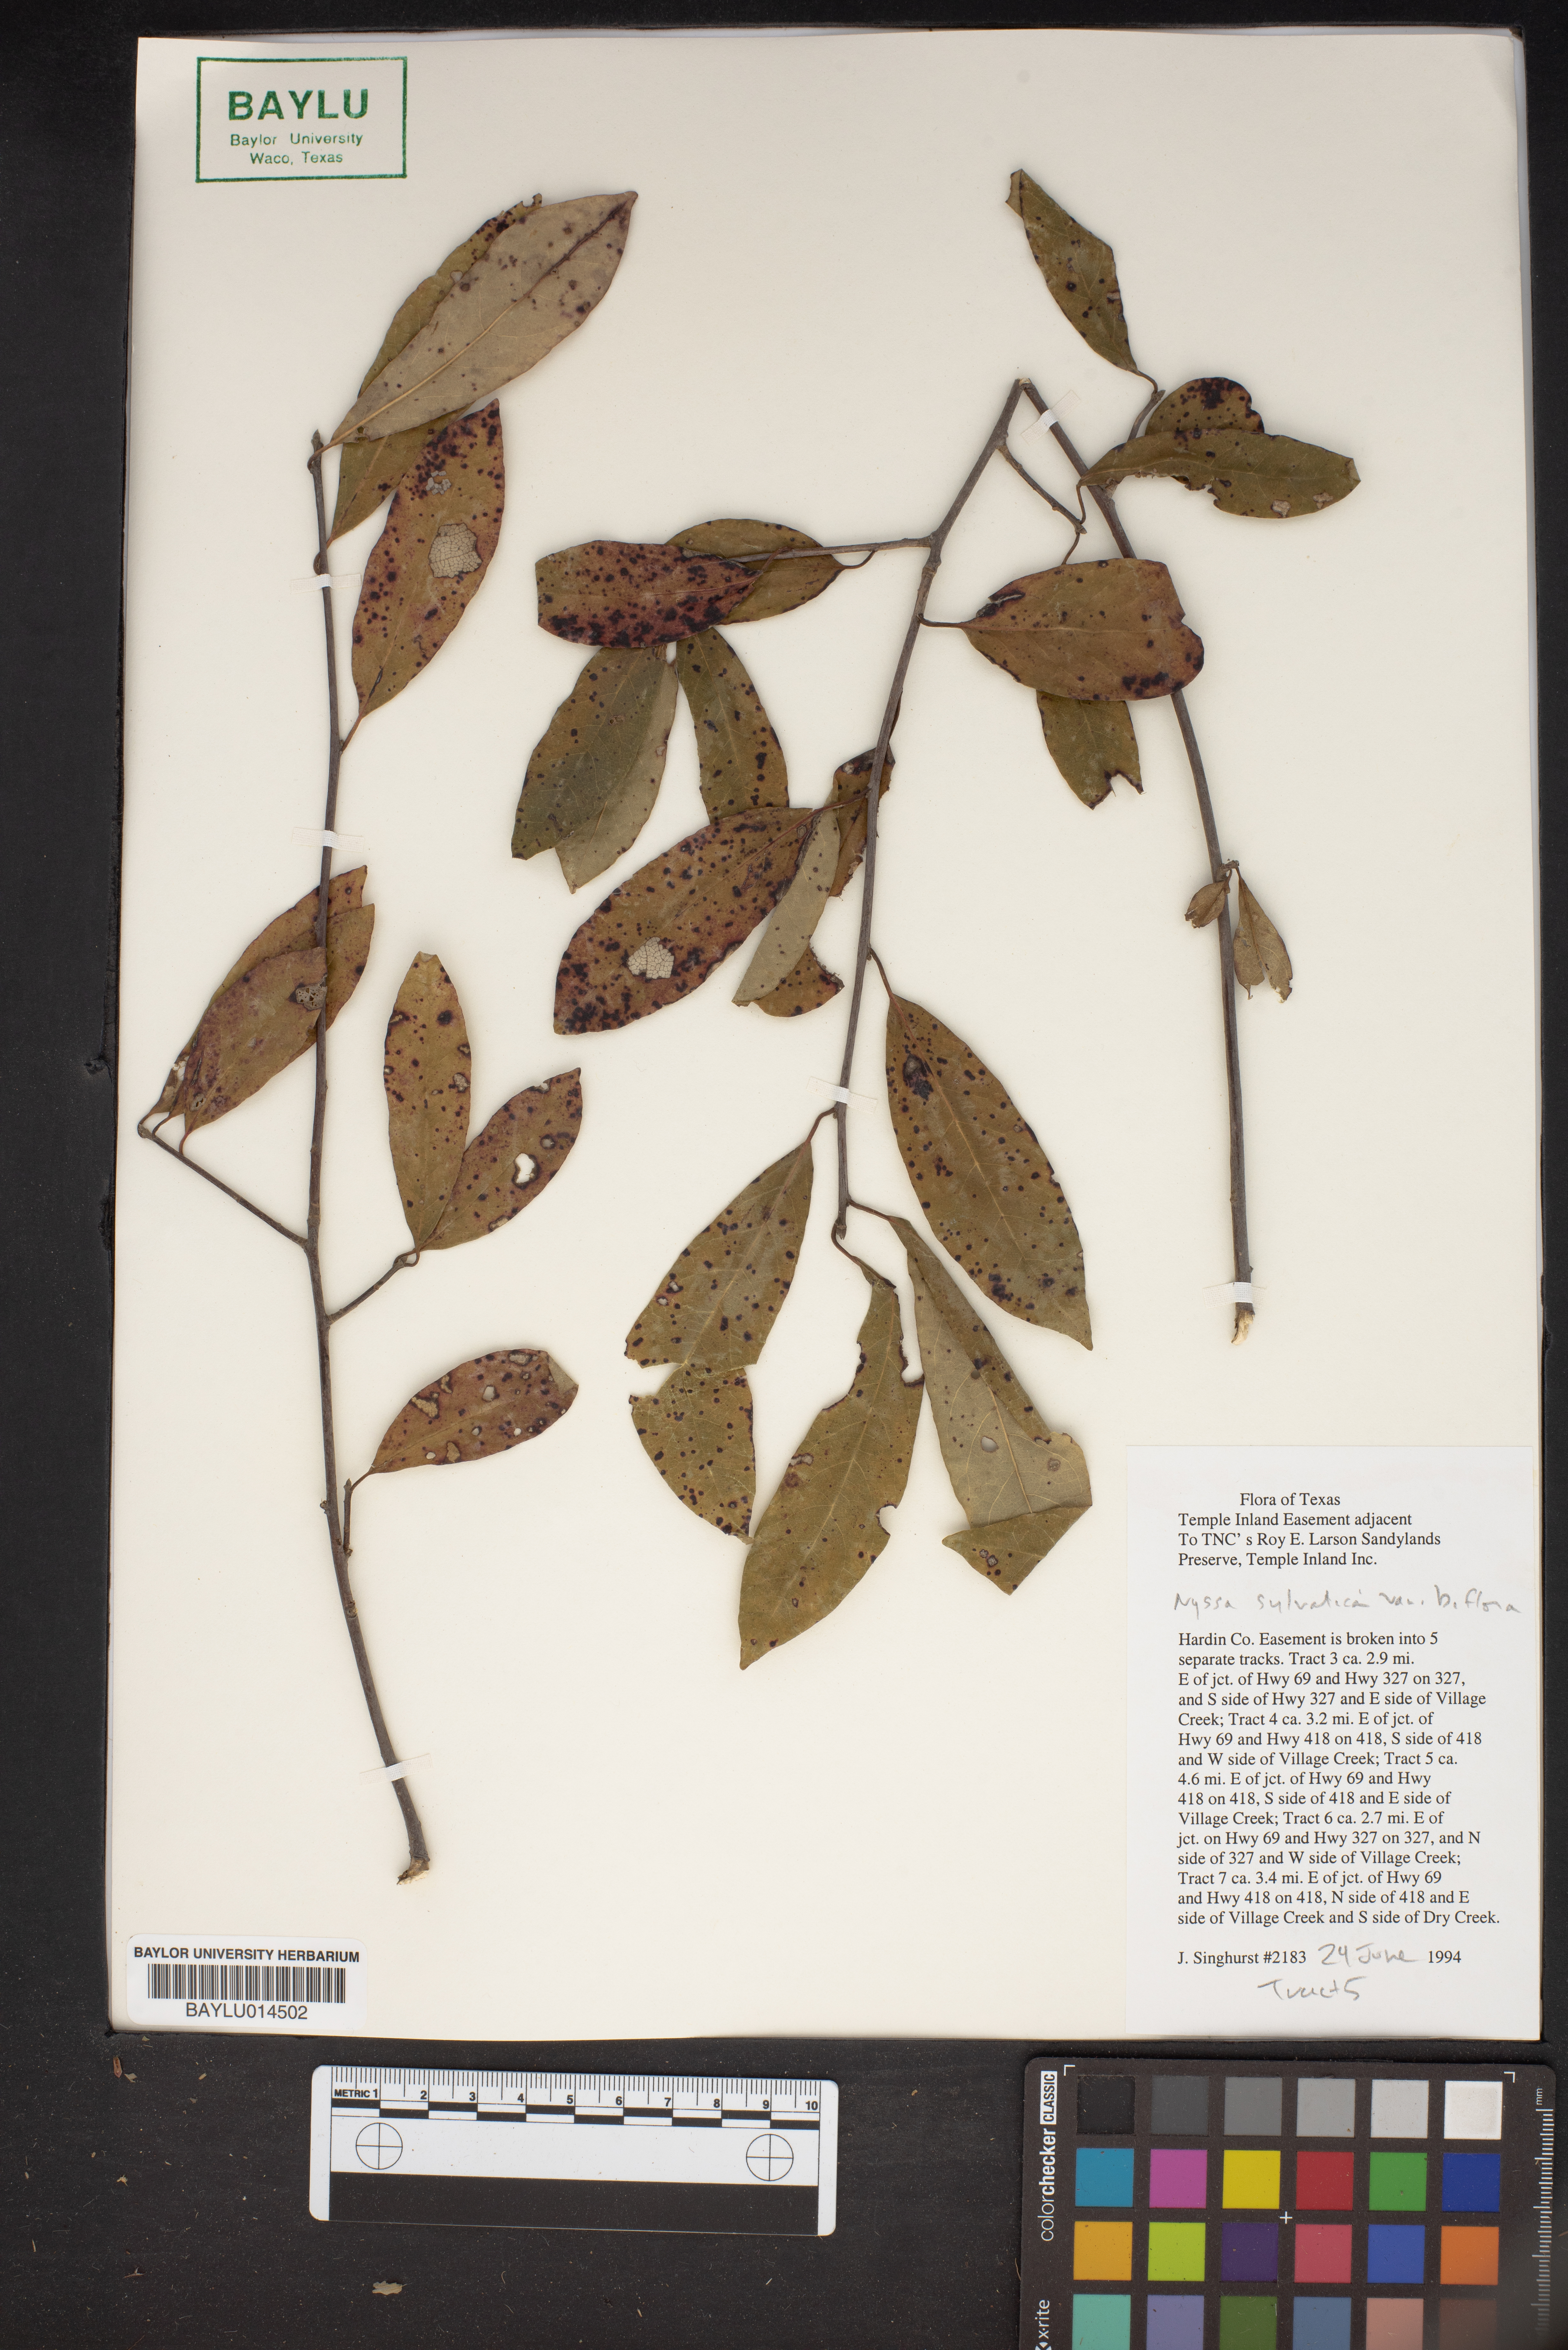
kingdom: Plantae
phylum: Tracheophyta
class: Magnoliopsida
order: Cornales
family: Nyssaceae
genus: Nyssa
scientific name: Nyssa biflora
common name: Swamp blackgum
